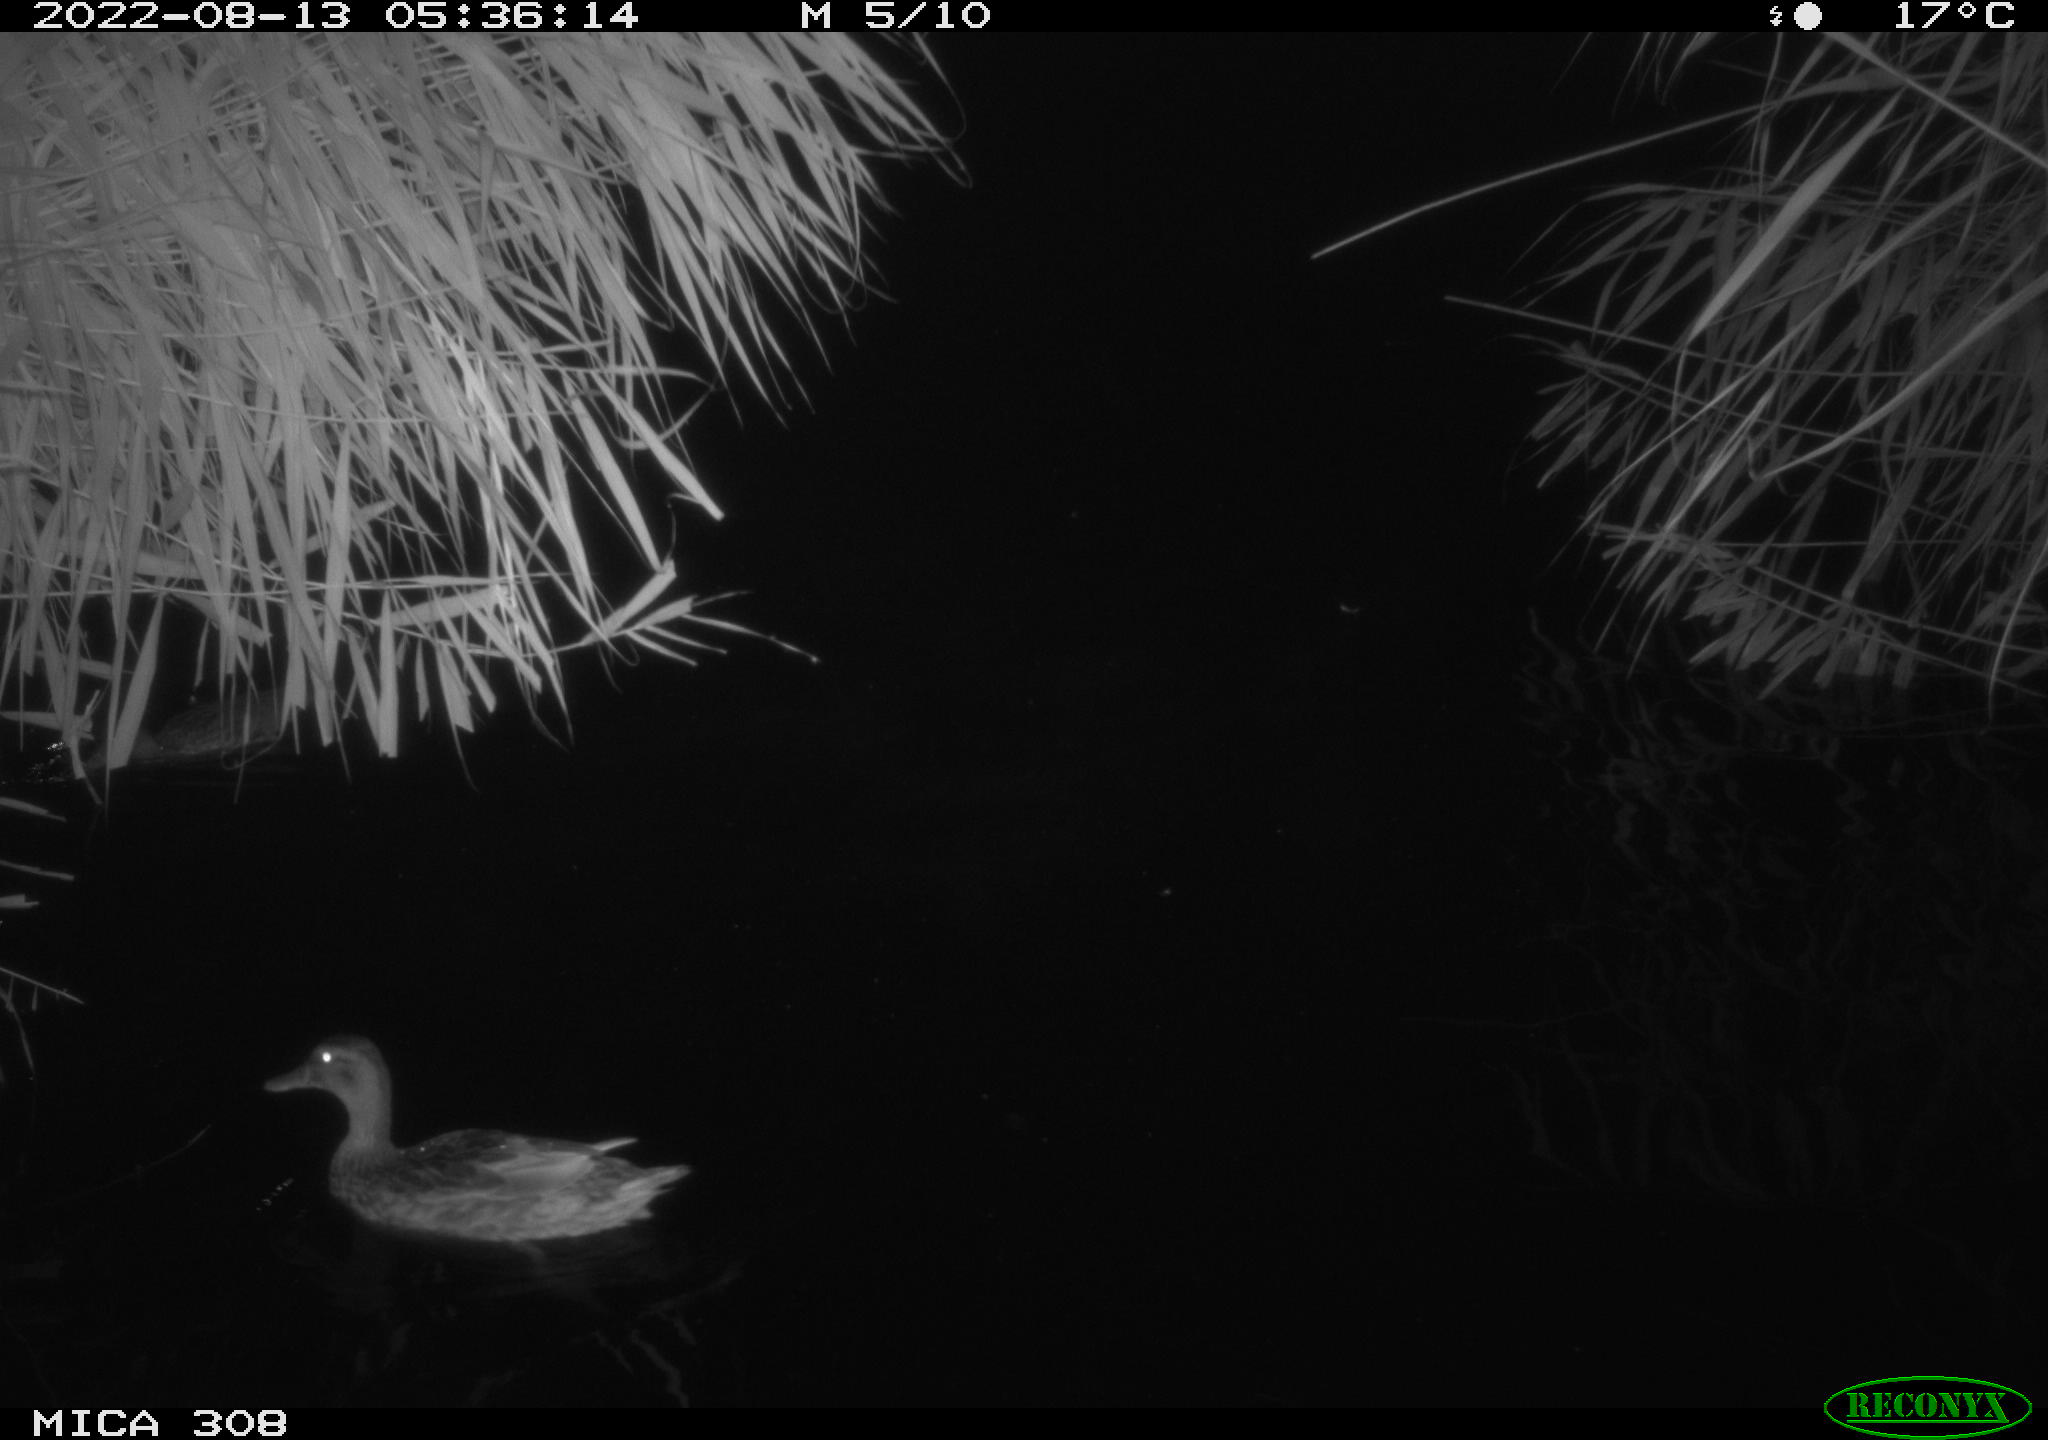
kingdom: Animalia
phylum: Chordata
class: Aves
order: Anseriformes
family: Anatidae
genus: Mareca
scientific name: Mareca strepera
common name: Gadwall
